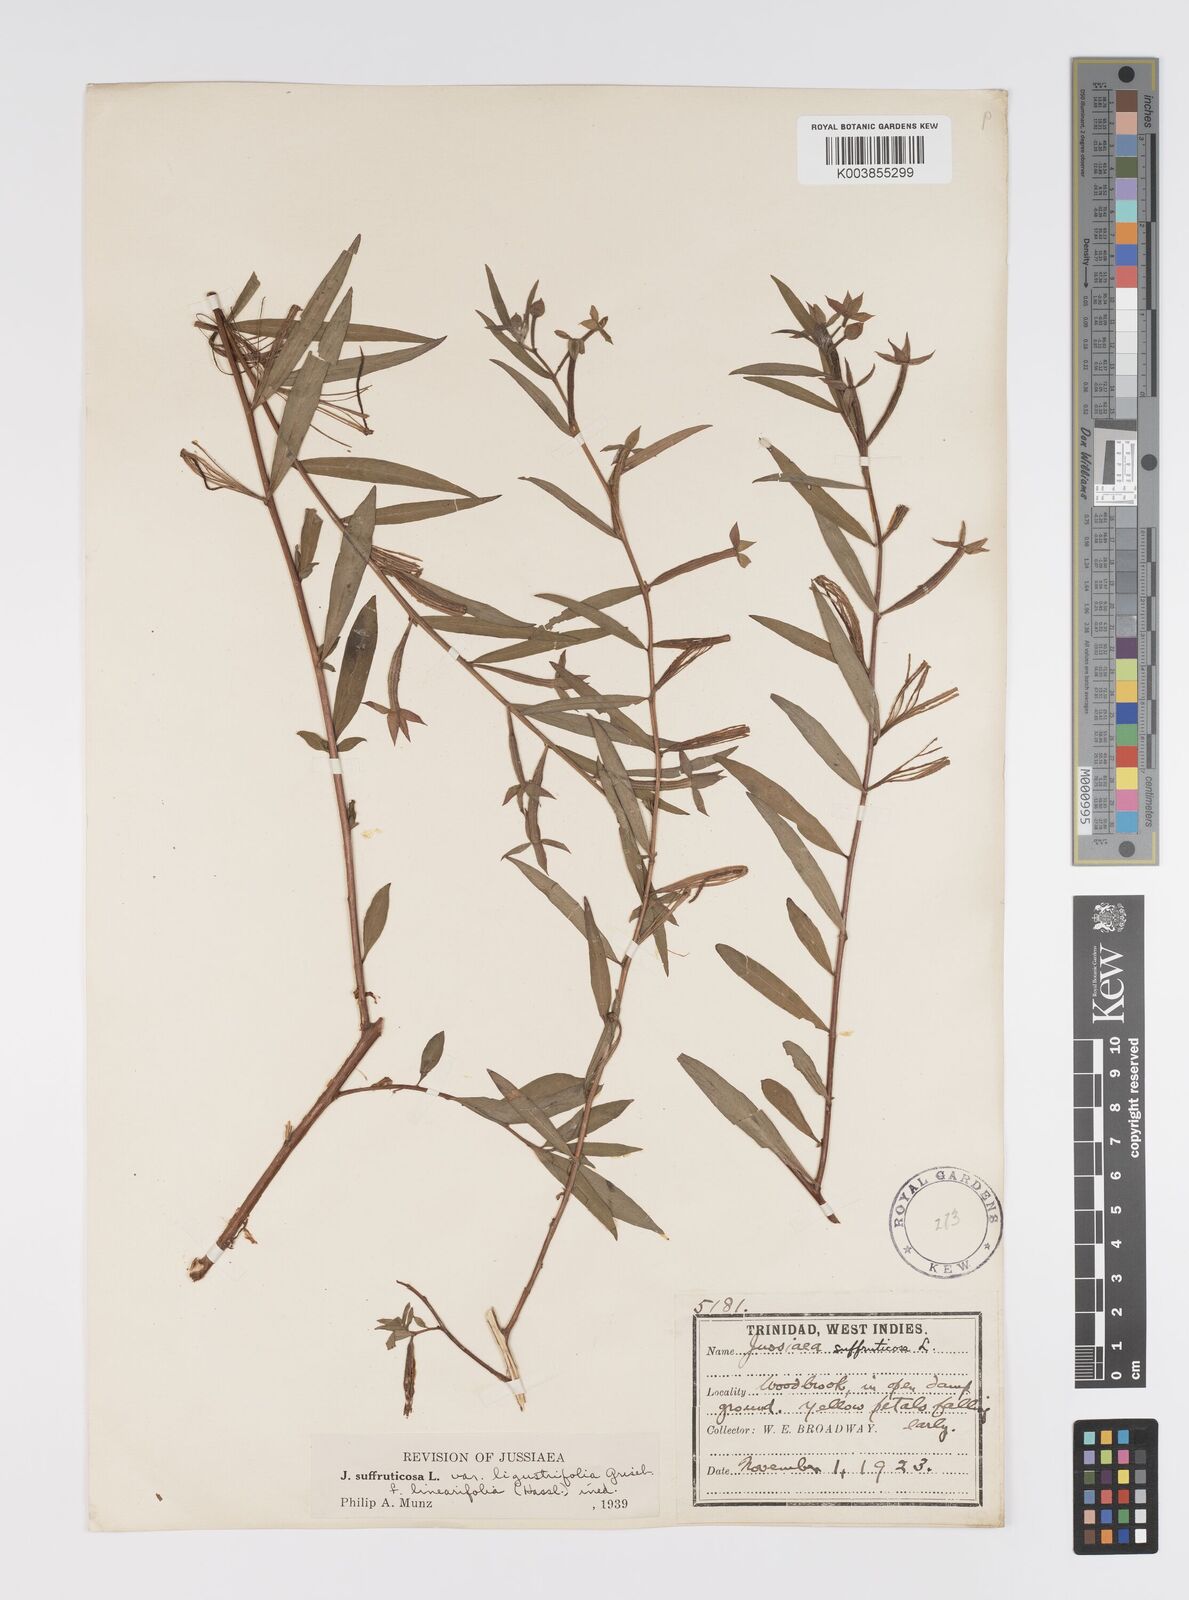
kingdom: Plantae
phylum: Tracheophyta
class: Magnoliopsida
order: Myrtales
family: Onagraceae
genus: Ludwigia
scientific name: Ludwigia
